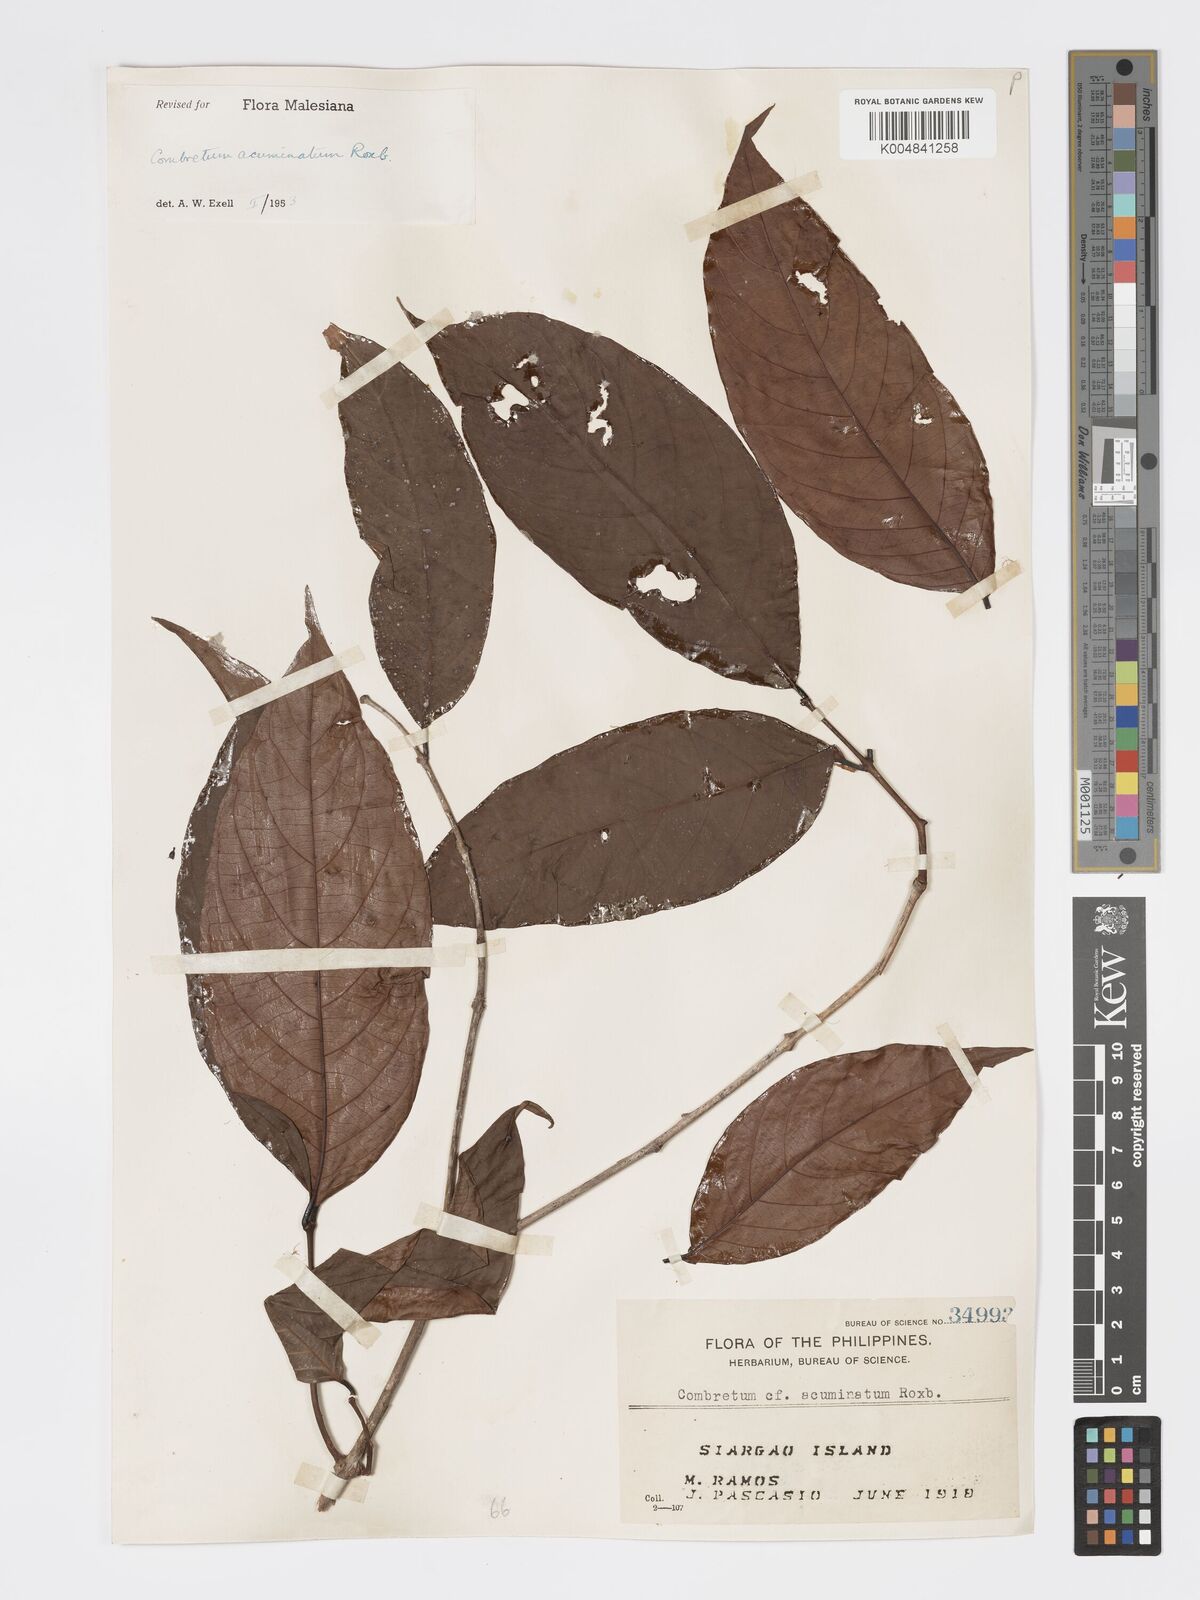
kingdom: Plantae
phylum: Tracheophyta
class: Magnoliopsida
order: Myrtales
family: Combretaceae
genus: Combretum
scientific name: Combretum acuminatum
